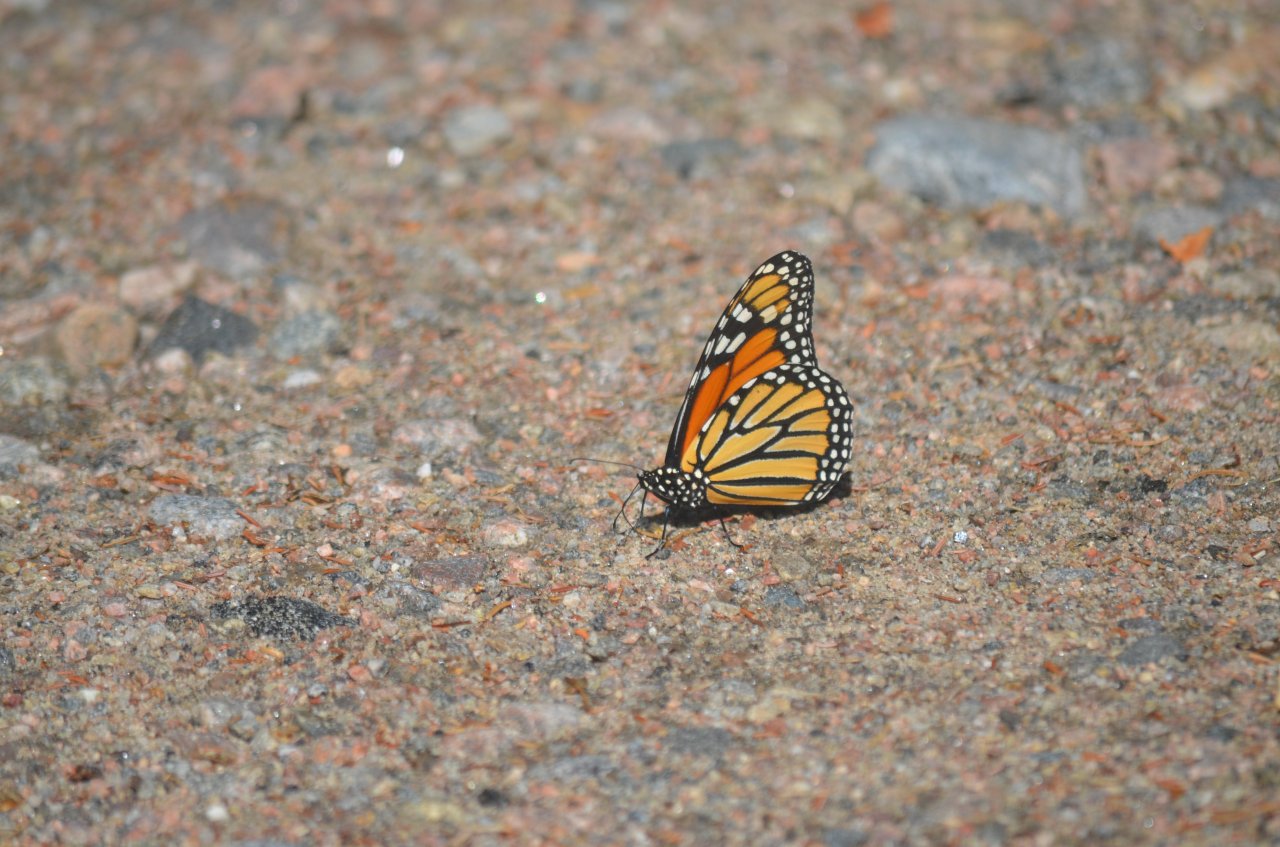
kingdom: Animalia
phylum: Arthropoda
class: Insecta
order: Lepidoptera
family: Nymphalidae
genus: Danaus
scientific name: Danaus plexippus
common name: Monarch
